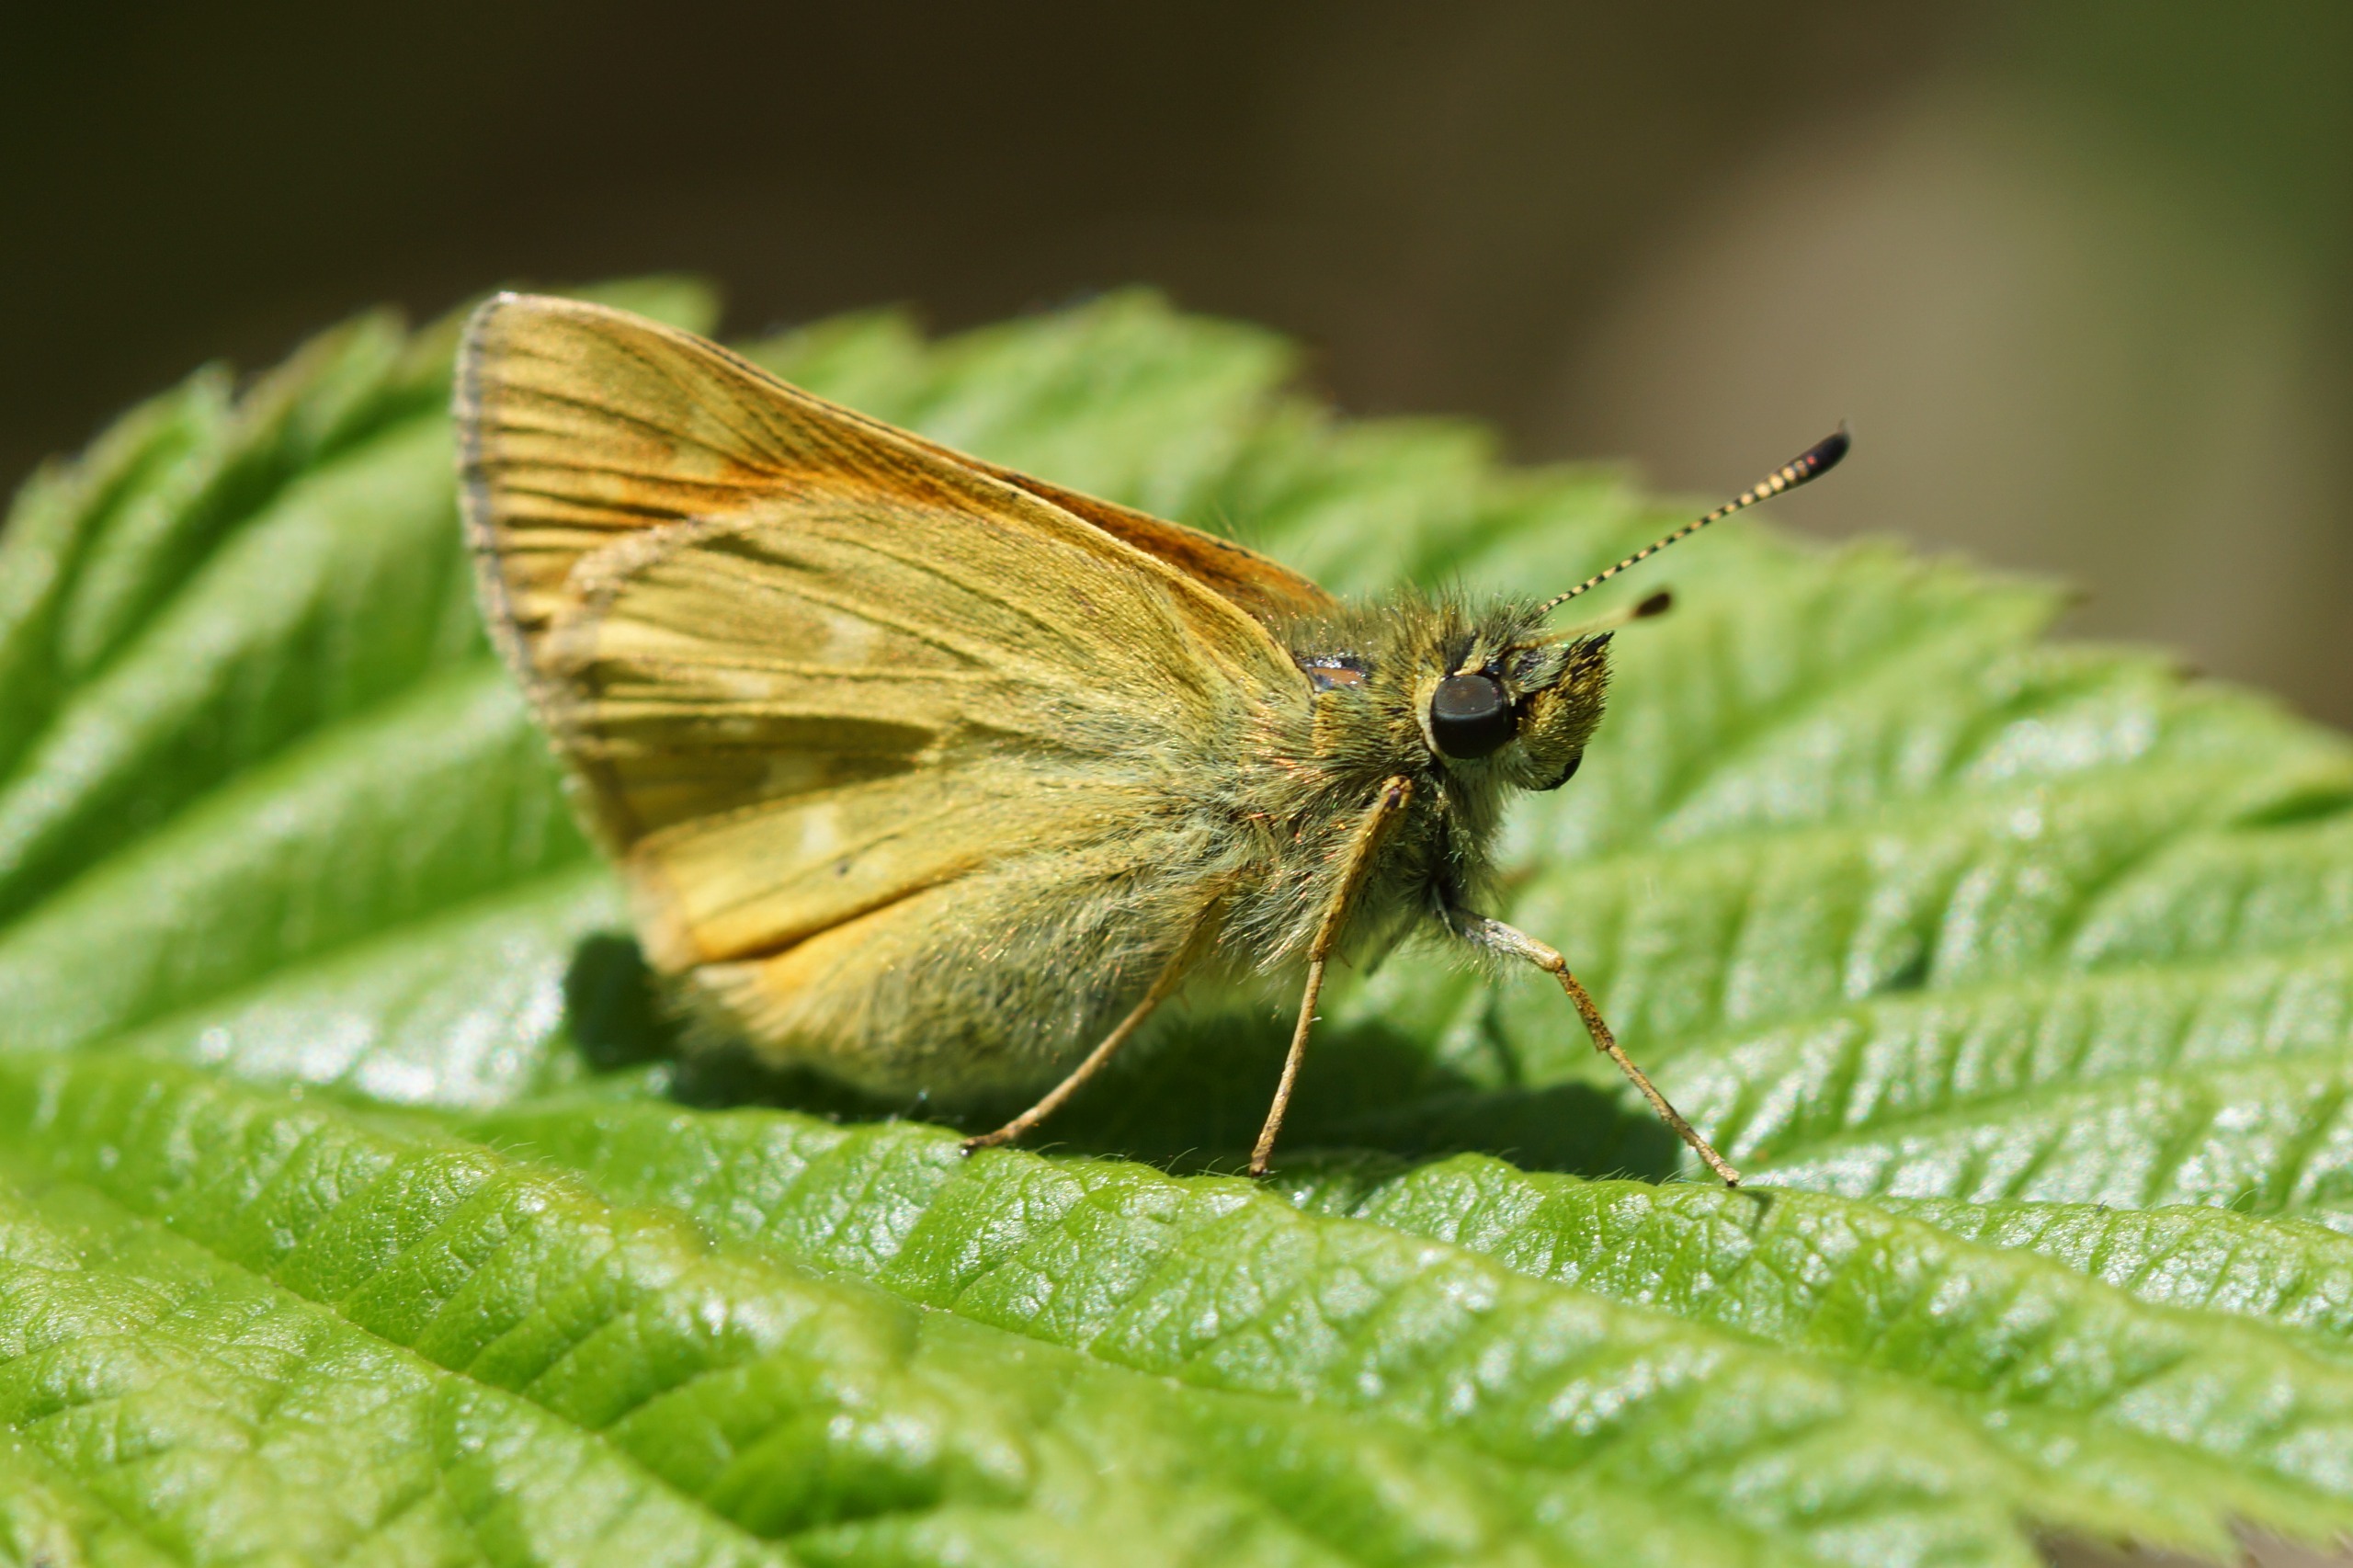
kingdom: Animalia
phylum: Arthropoda
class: Insecta
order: Lepidoptera
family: Hesperiidae
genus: Ochlodes
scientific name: Ochlodes venata
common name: Stor bredpande
